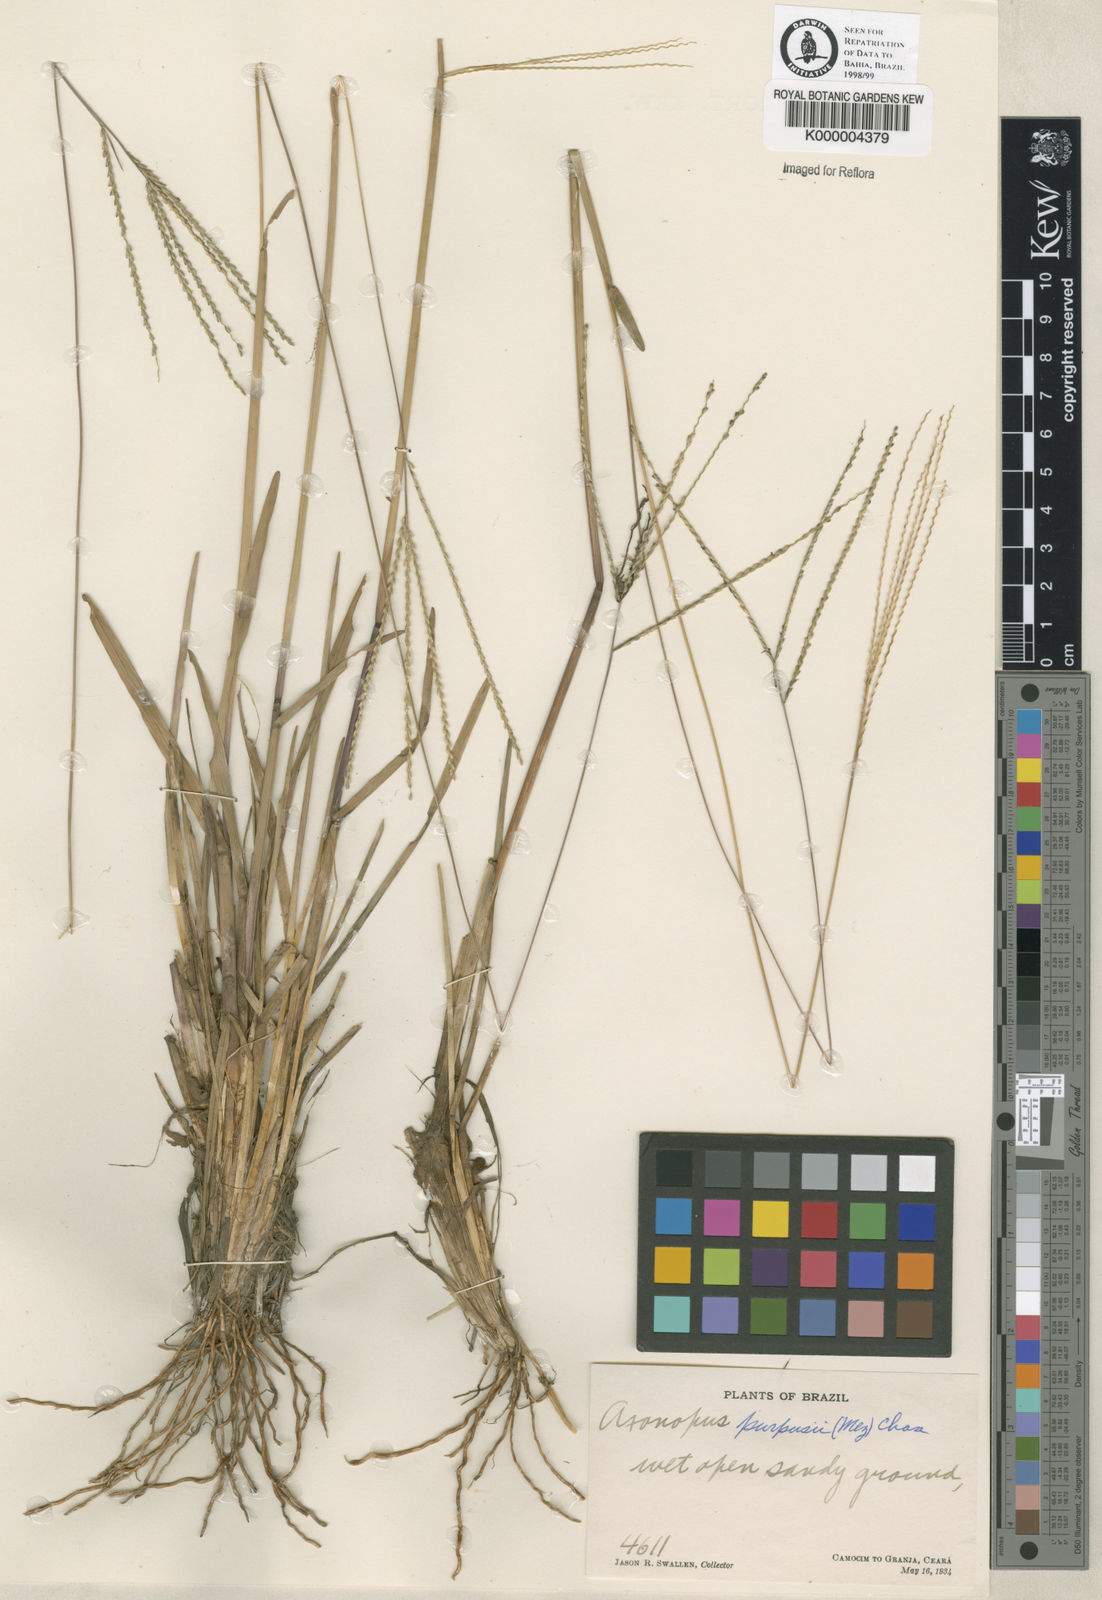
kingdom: Plantae
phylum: Tracheophyta
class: Liliopsida
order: Poales
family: Poaceae
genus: Axonopus
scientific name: Axonopus purpusii
